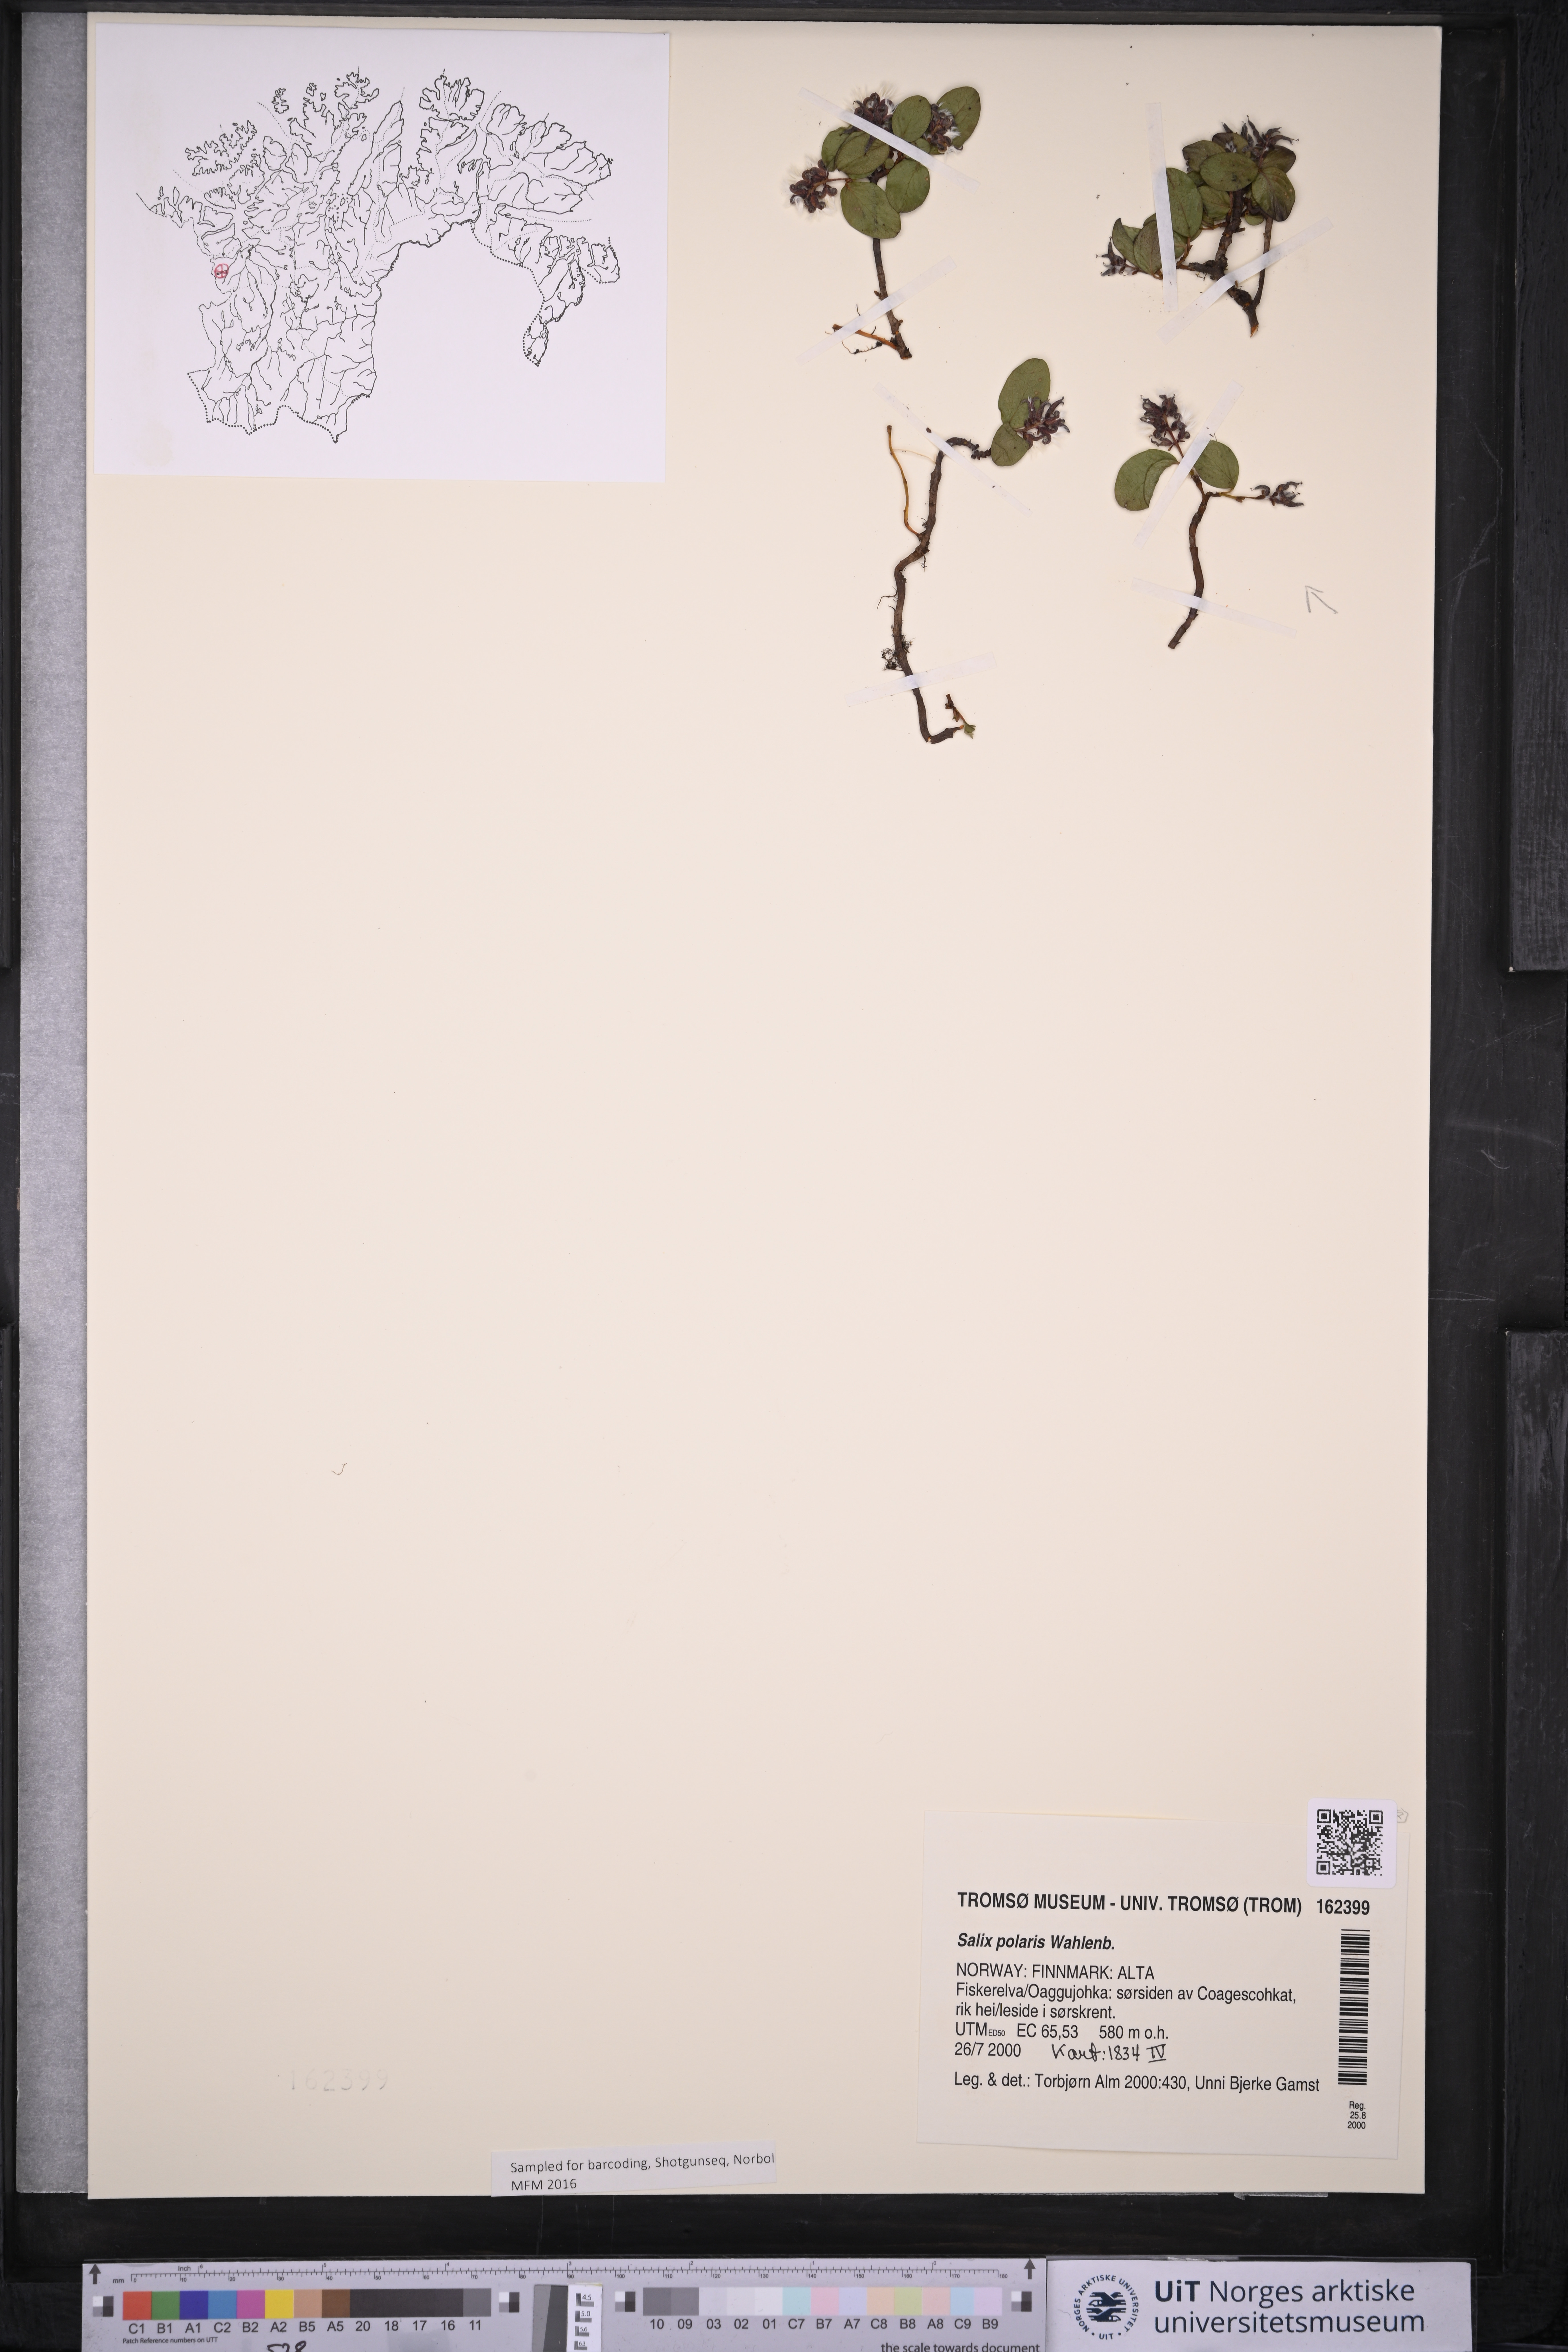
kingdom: Plantae
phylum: Tracheophyta
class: Magnoliopsida
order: Malpighiales
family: Salicaceae
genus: Salix
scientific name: Salix polaris
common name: Polar willow
